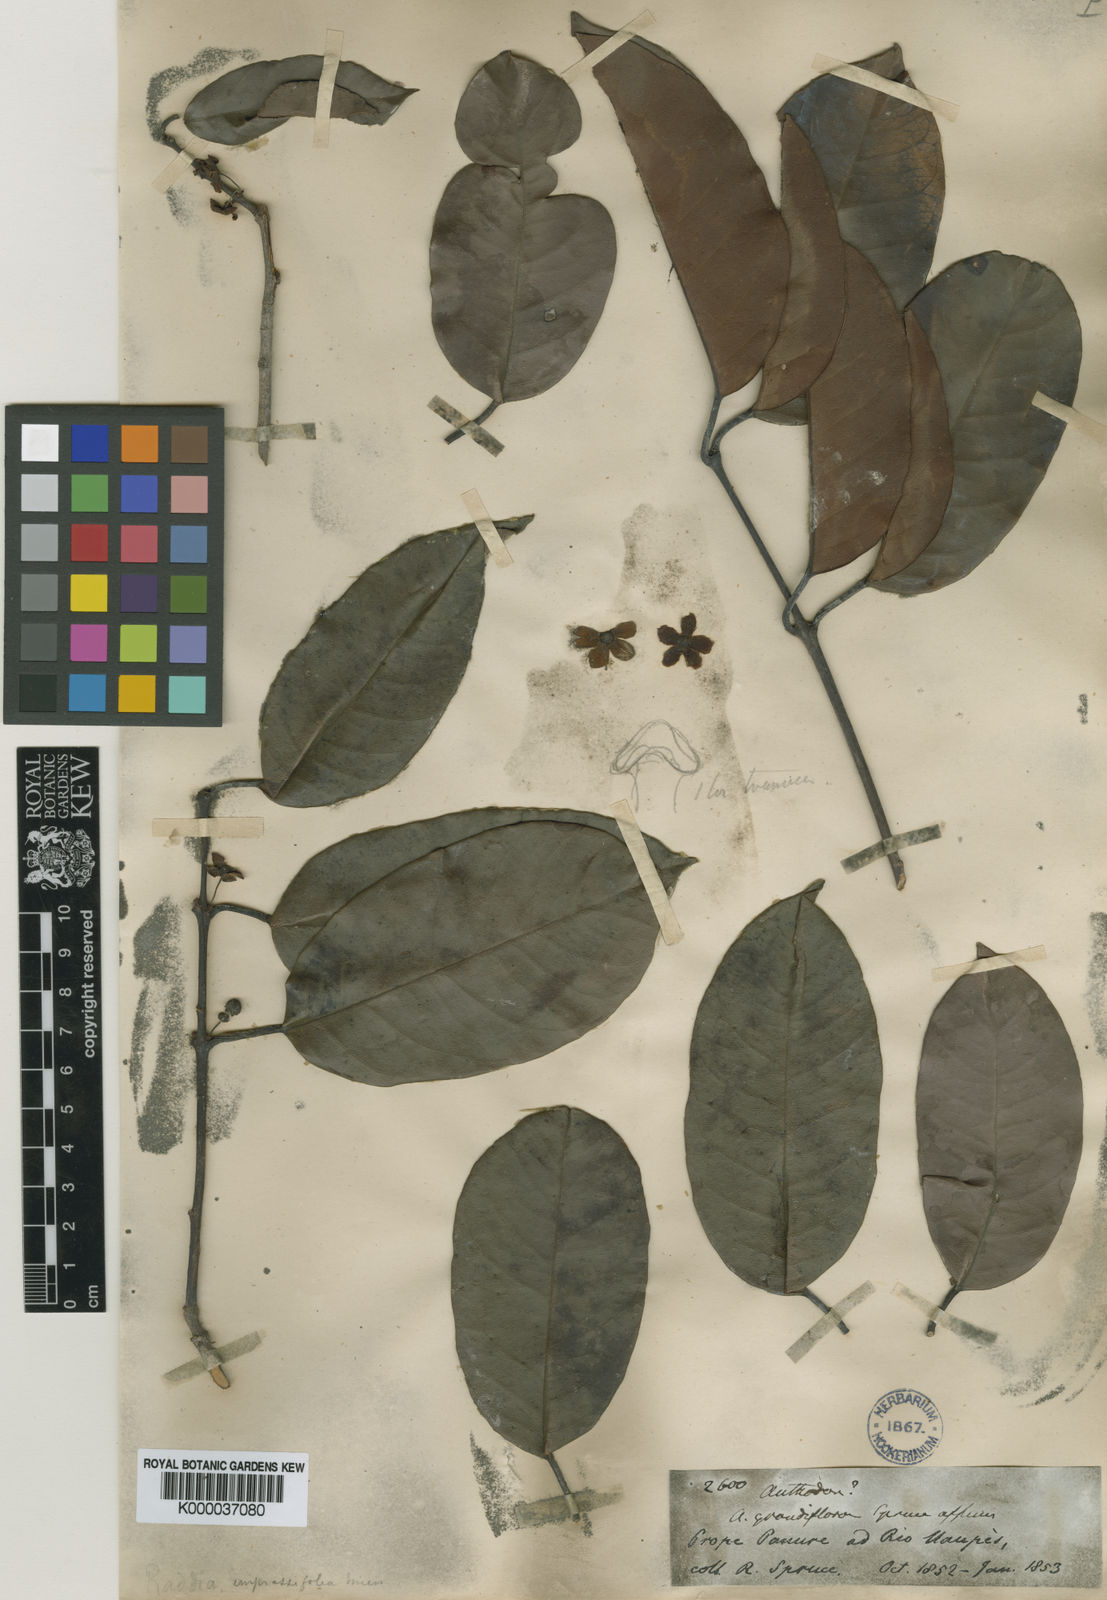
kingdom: Plantae
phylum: Tracheophyta
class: Magnoliopsida
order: Celastrales
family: Celastraceae
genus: Salacia
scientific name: Salacia impressifolia
